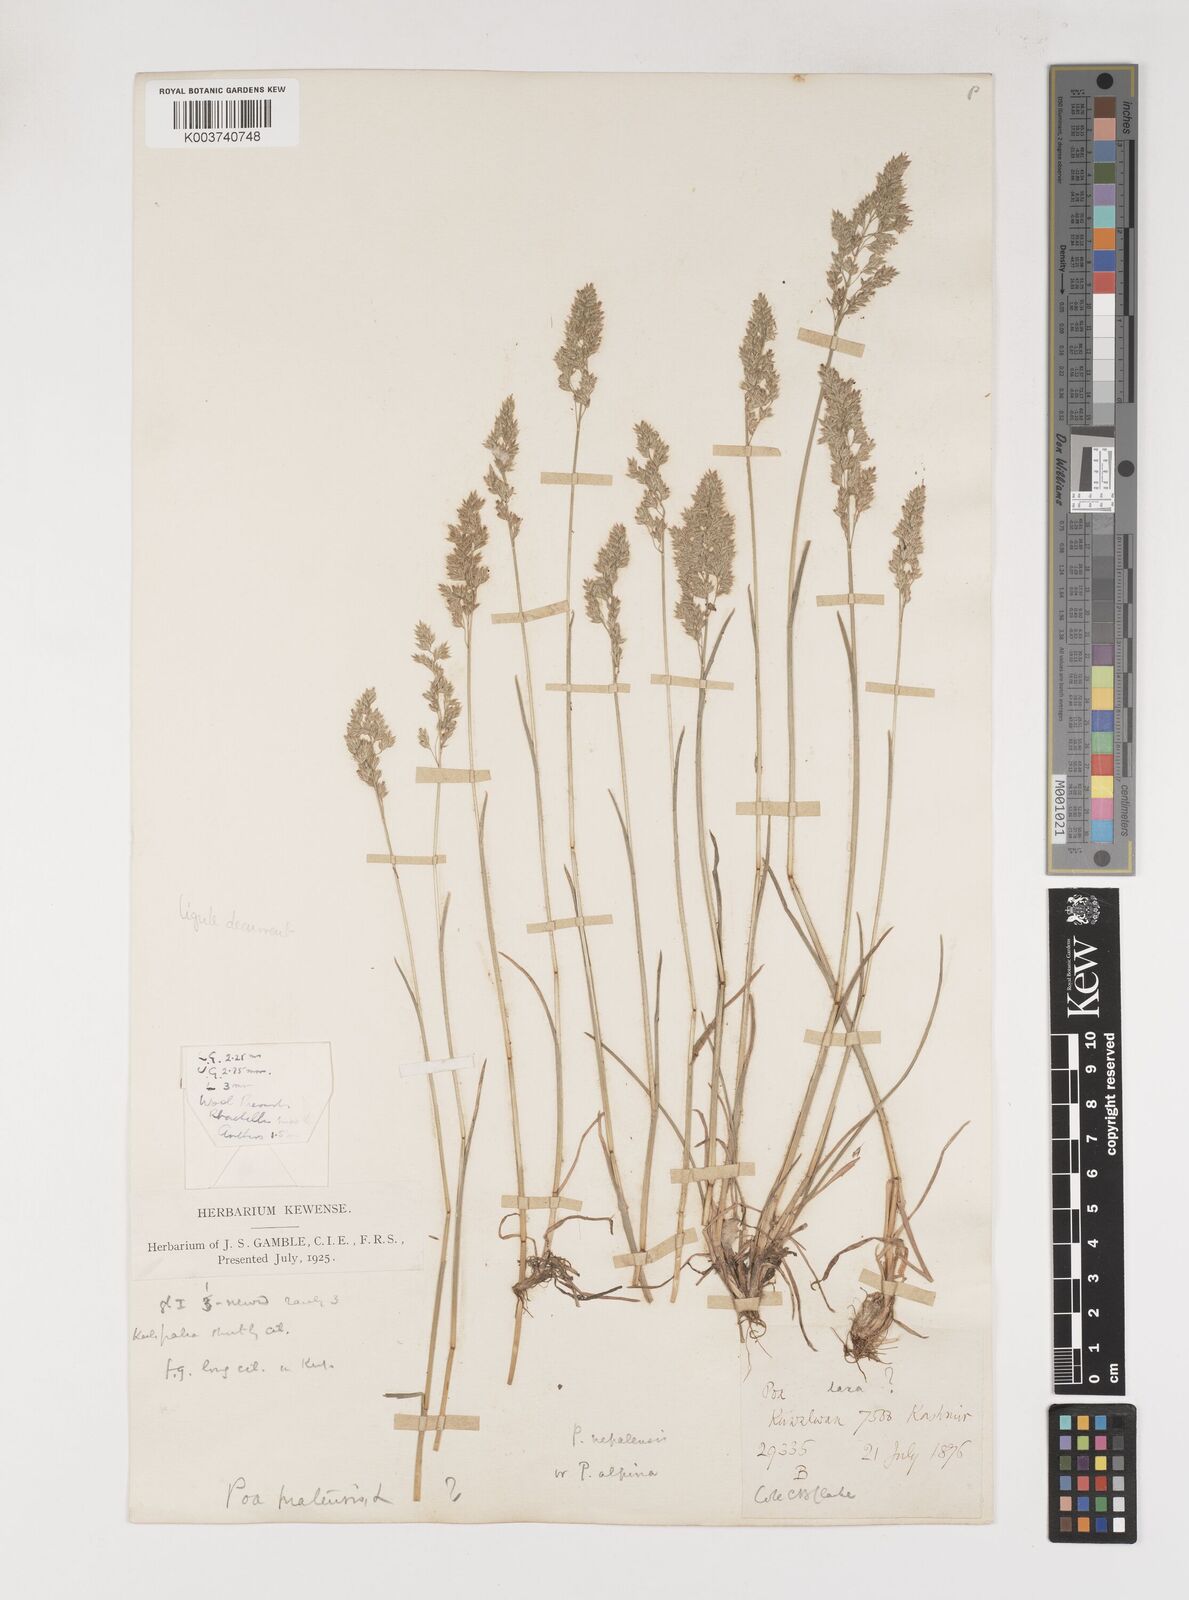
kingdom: Plantae
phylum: Tracheophyta
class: Liliopsida
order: Poales
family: Poaceae
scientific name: Poaceae
